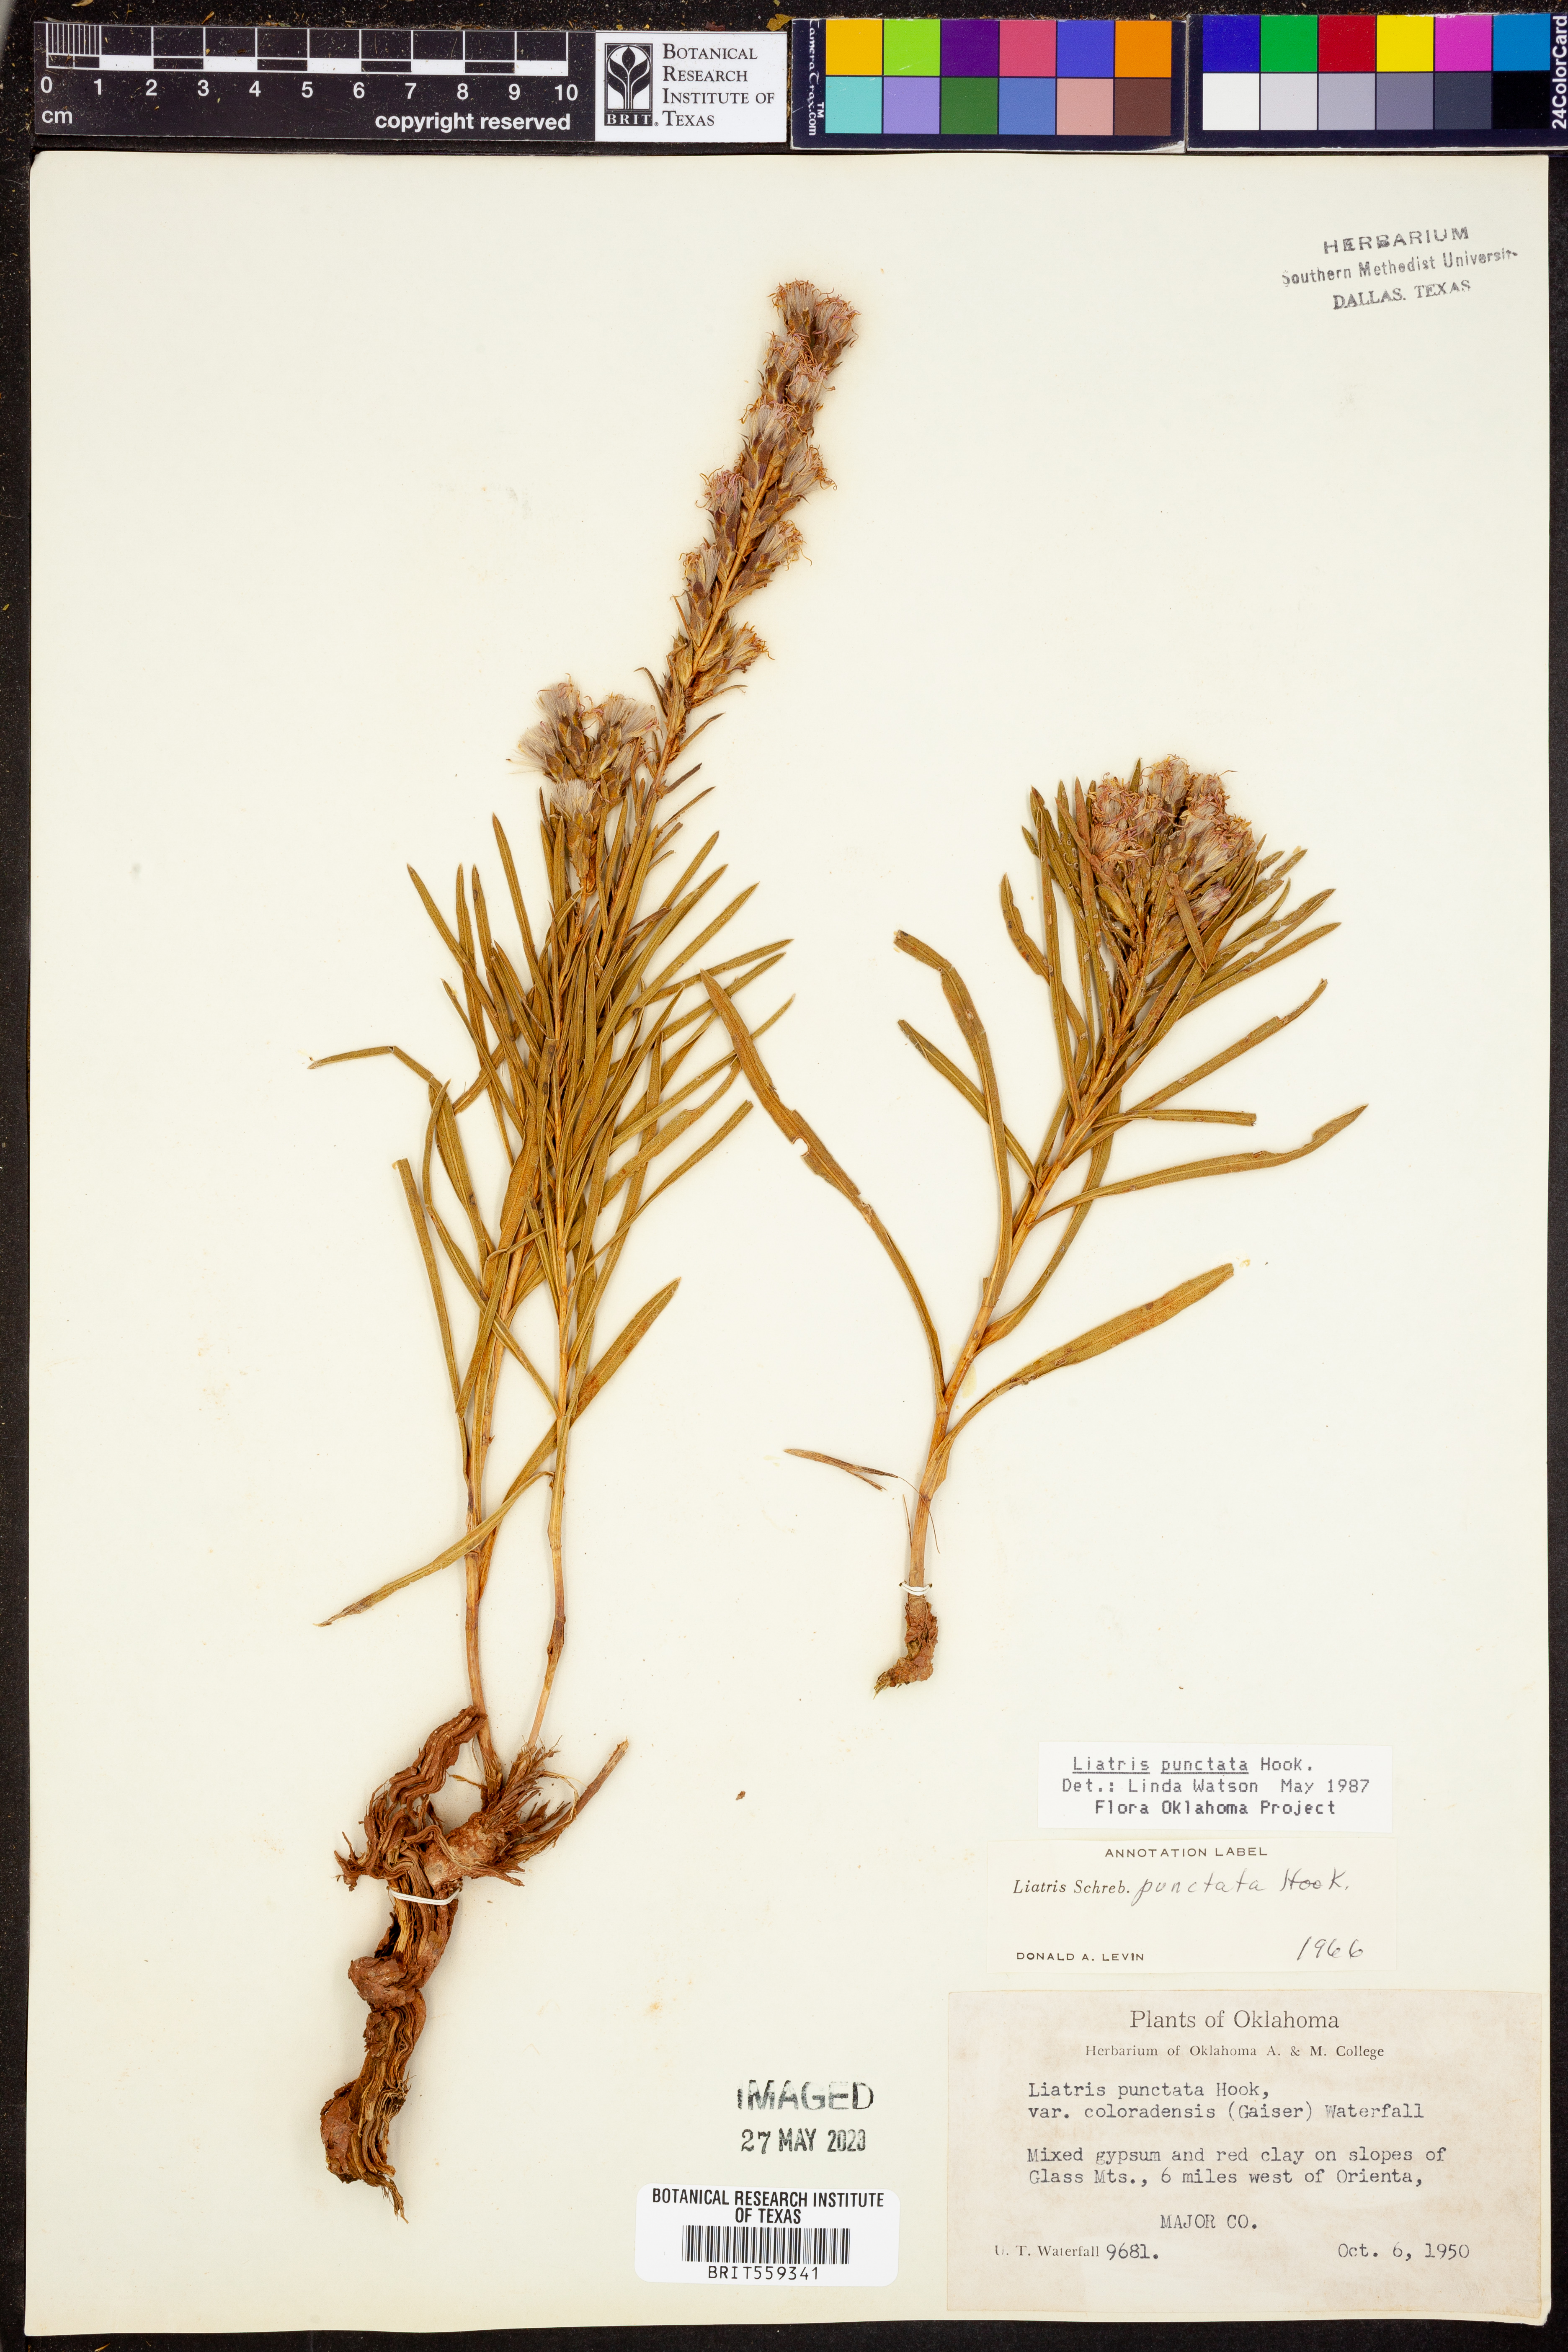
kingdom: Plantae
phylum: Tracheophyta
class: Magnoliopsida
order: Asterales
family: Asteraceae
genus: Liatris
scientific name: Liatris punctata
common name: Dotted gayfeather
